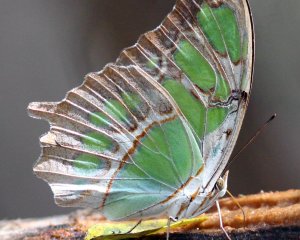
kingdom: Animalia
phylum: Arthropoda
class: Insecta
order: Lepidoptera
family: Nymphalidae
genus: Siproeta
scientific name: Siproeta stelenes
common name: Malachite
